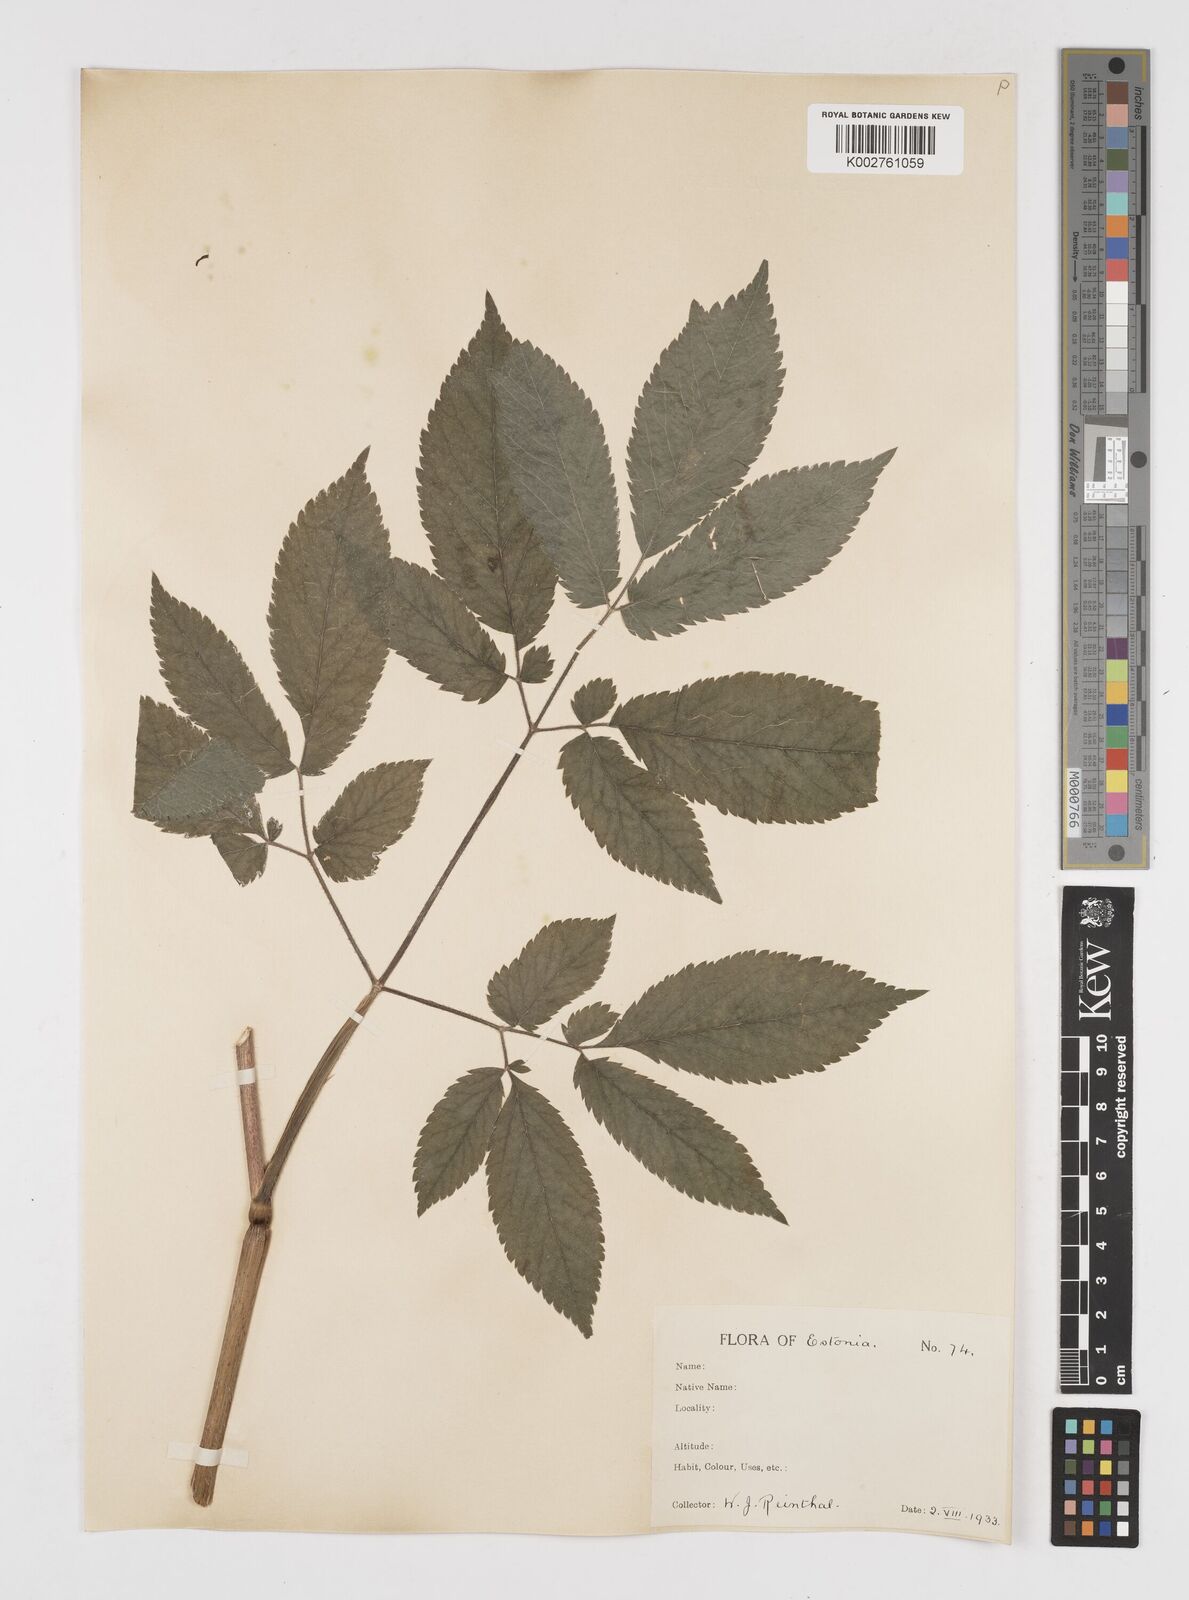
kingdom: Plantae
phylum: Tracheophyta
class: Magnoliopsida
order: Apiales
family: Apiaceae
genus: Chaerophyllum
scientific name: Chaerophyllum aromaticum
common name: Broadleaf chervil
